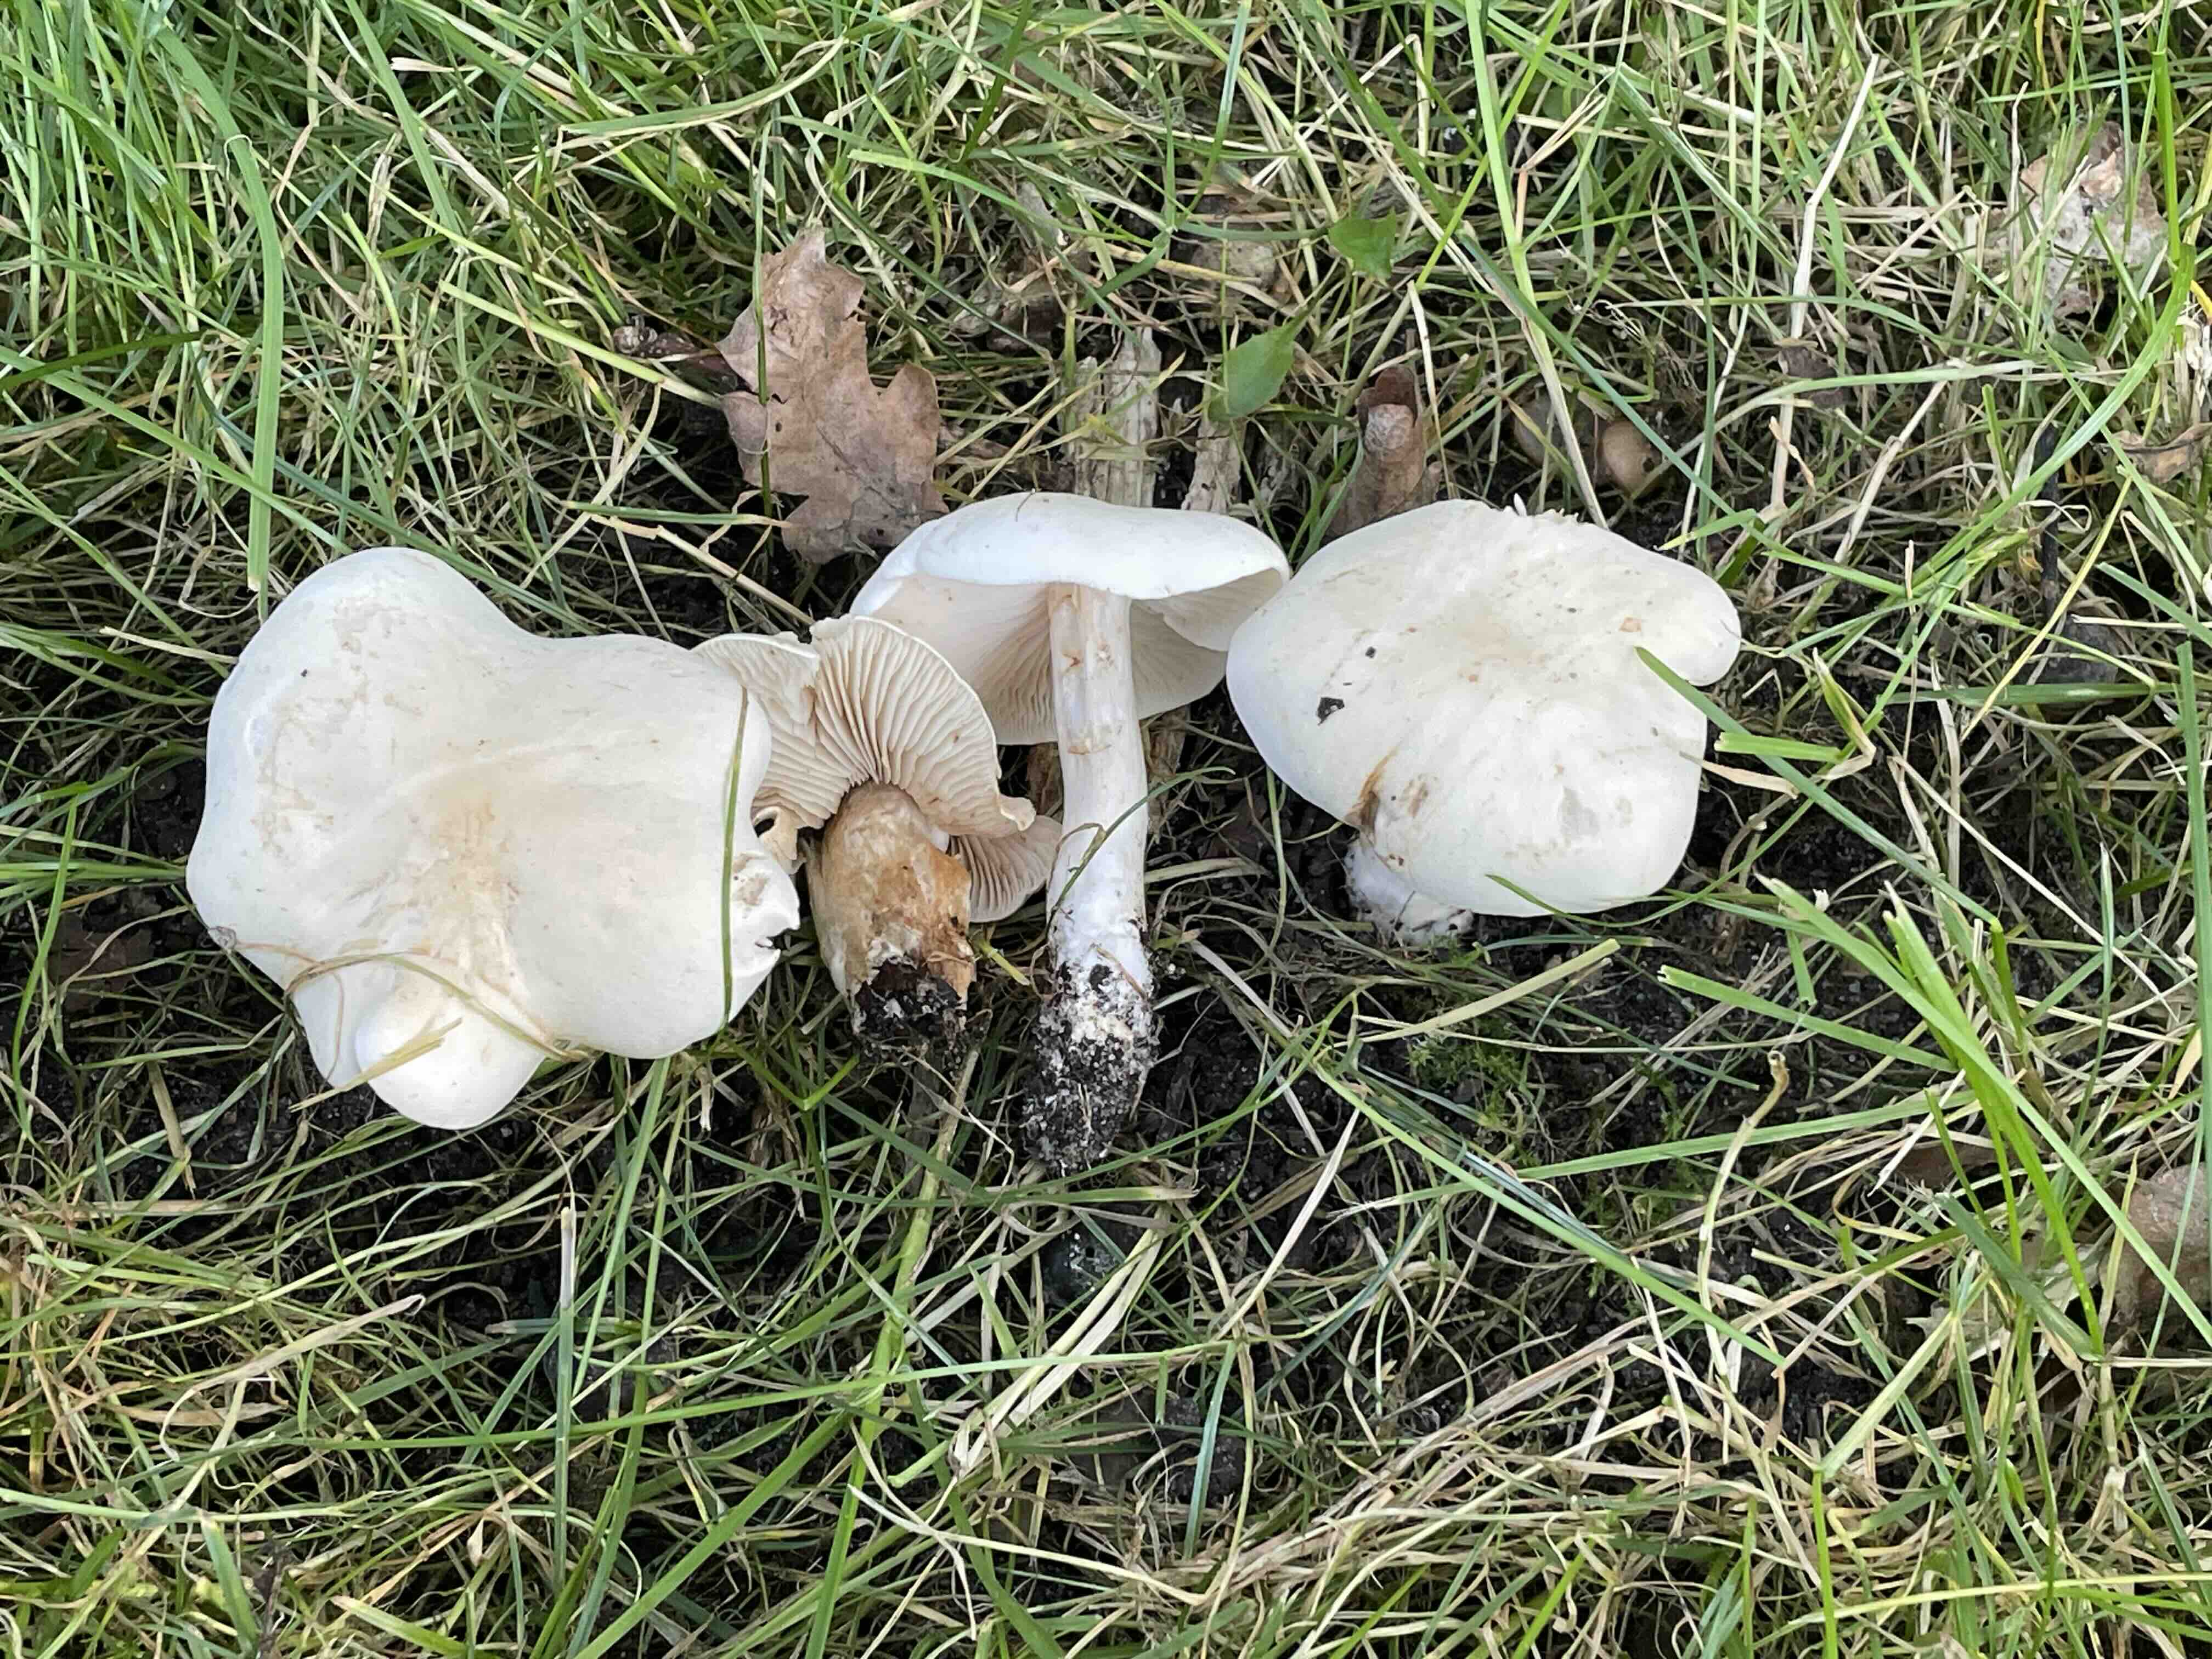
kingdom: Fungi
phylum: Basidiomycota
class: Agaricomycetes
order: Agaricales
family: Tricholomataceae
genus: Tricholoma
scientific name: Tricholoma album
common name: honning-ridderhat
